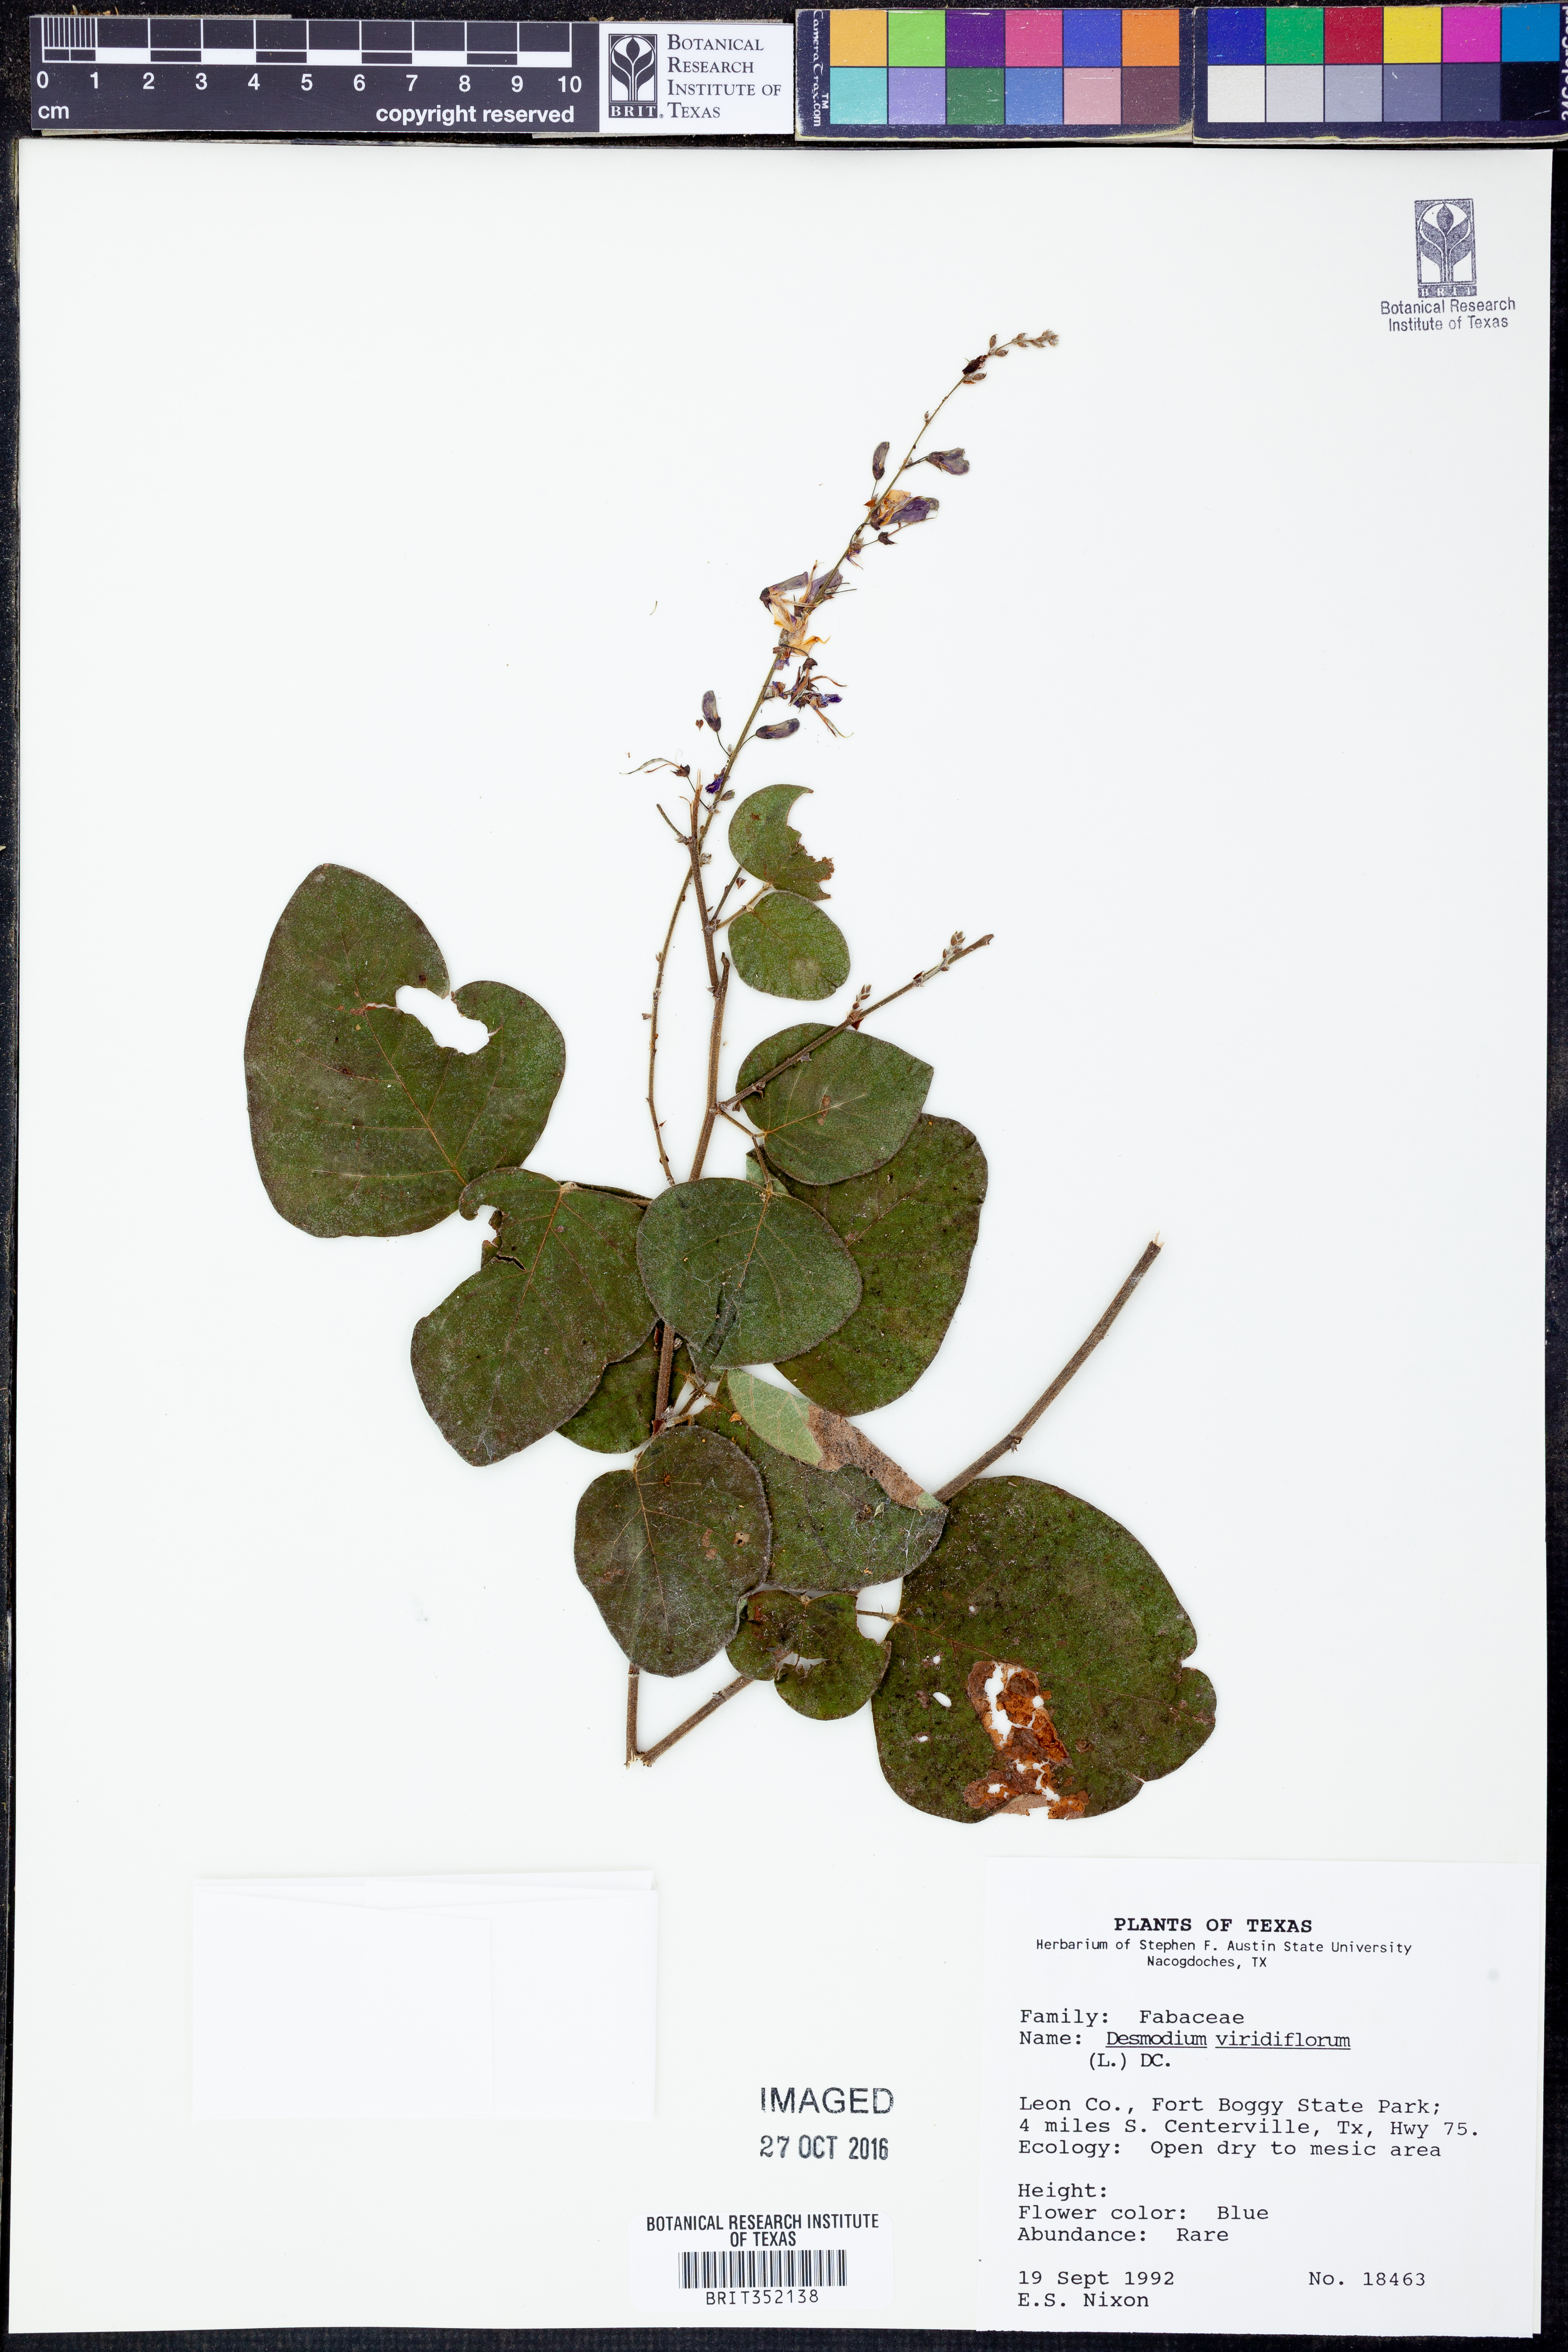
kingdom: Plantae
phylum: Tracheophyta
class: Magnoliopsida
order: Fabales
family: Fabaceae
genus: Desmodium
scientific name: Desmodium viridiflorum
